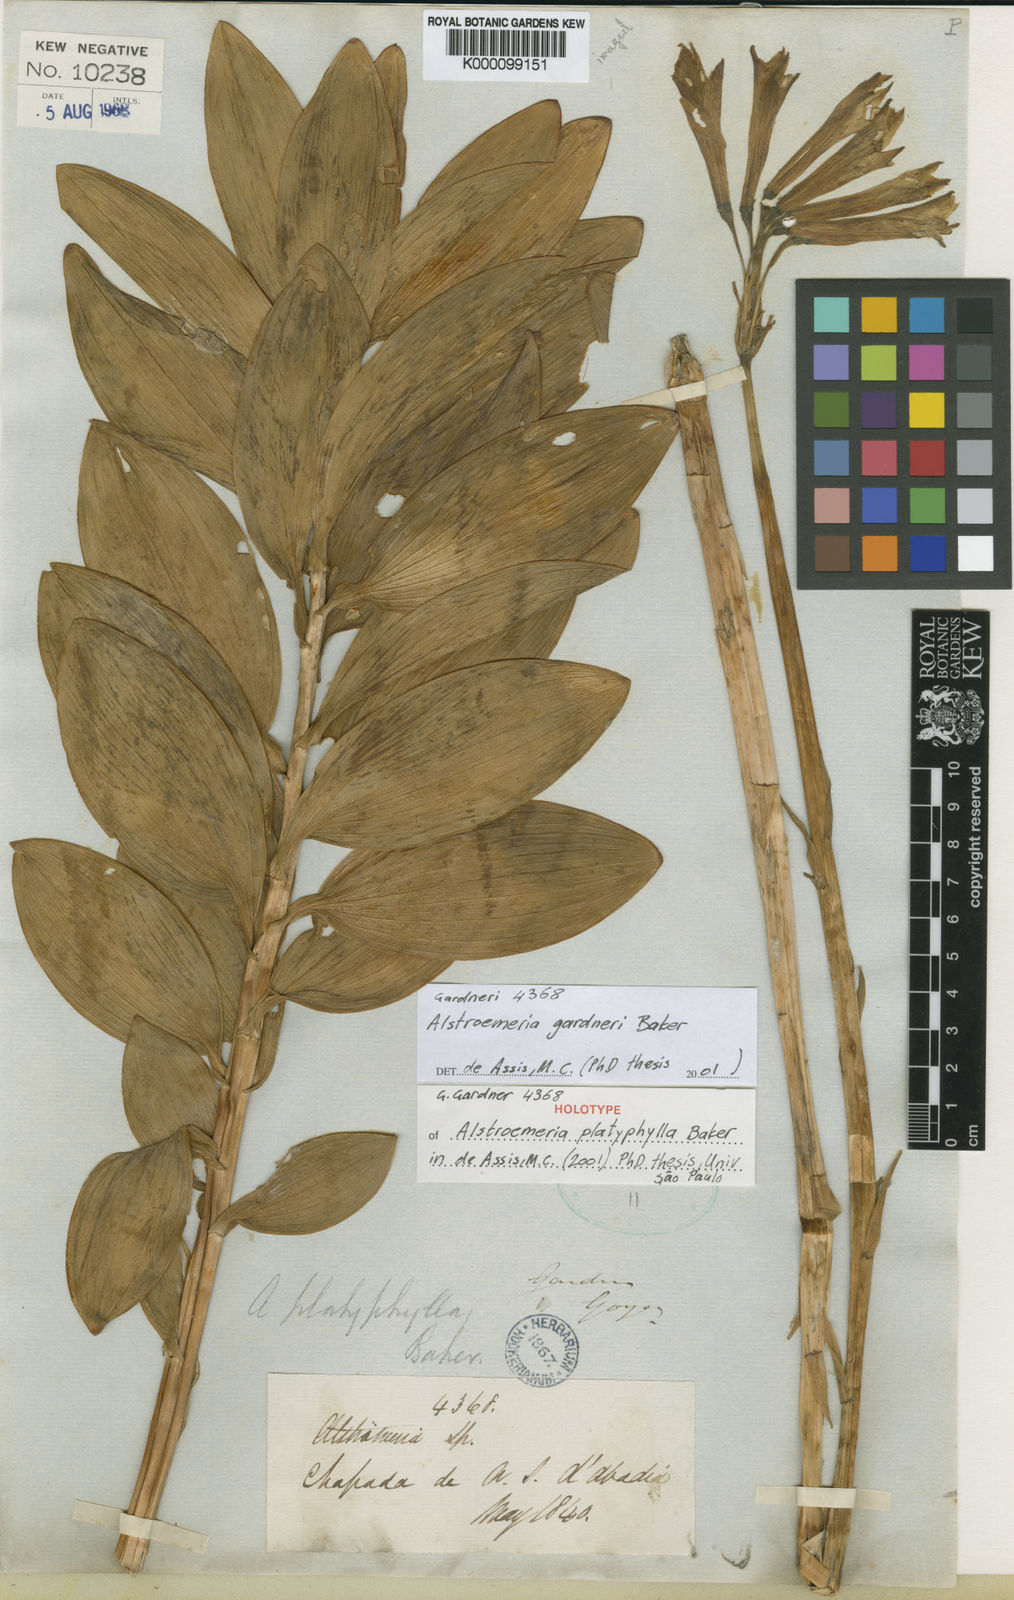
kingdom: Plantae
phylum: Tracheophyta
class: Liliopsida
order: Liliales
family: Alstroemeriaceae
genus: Alstroemeria
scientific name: Alstroemeria gardneri
